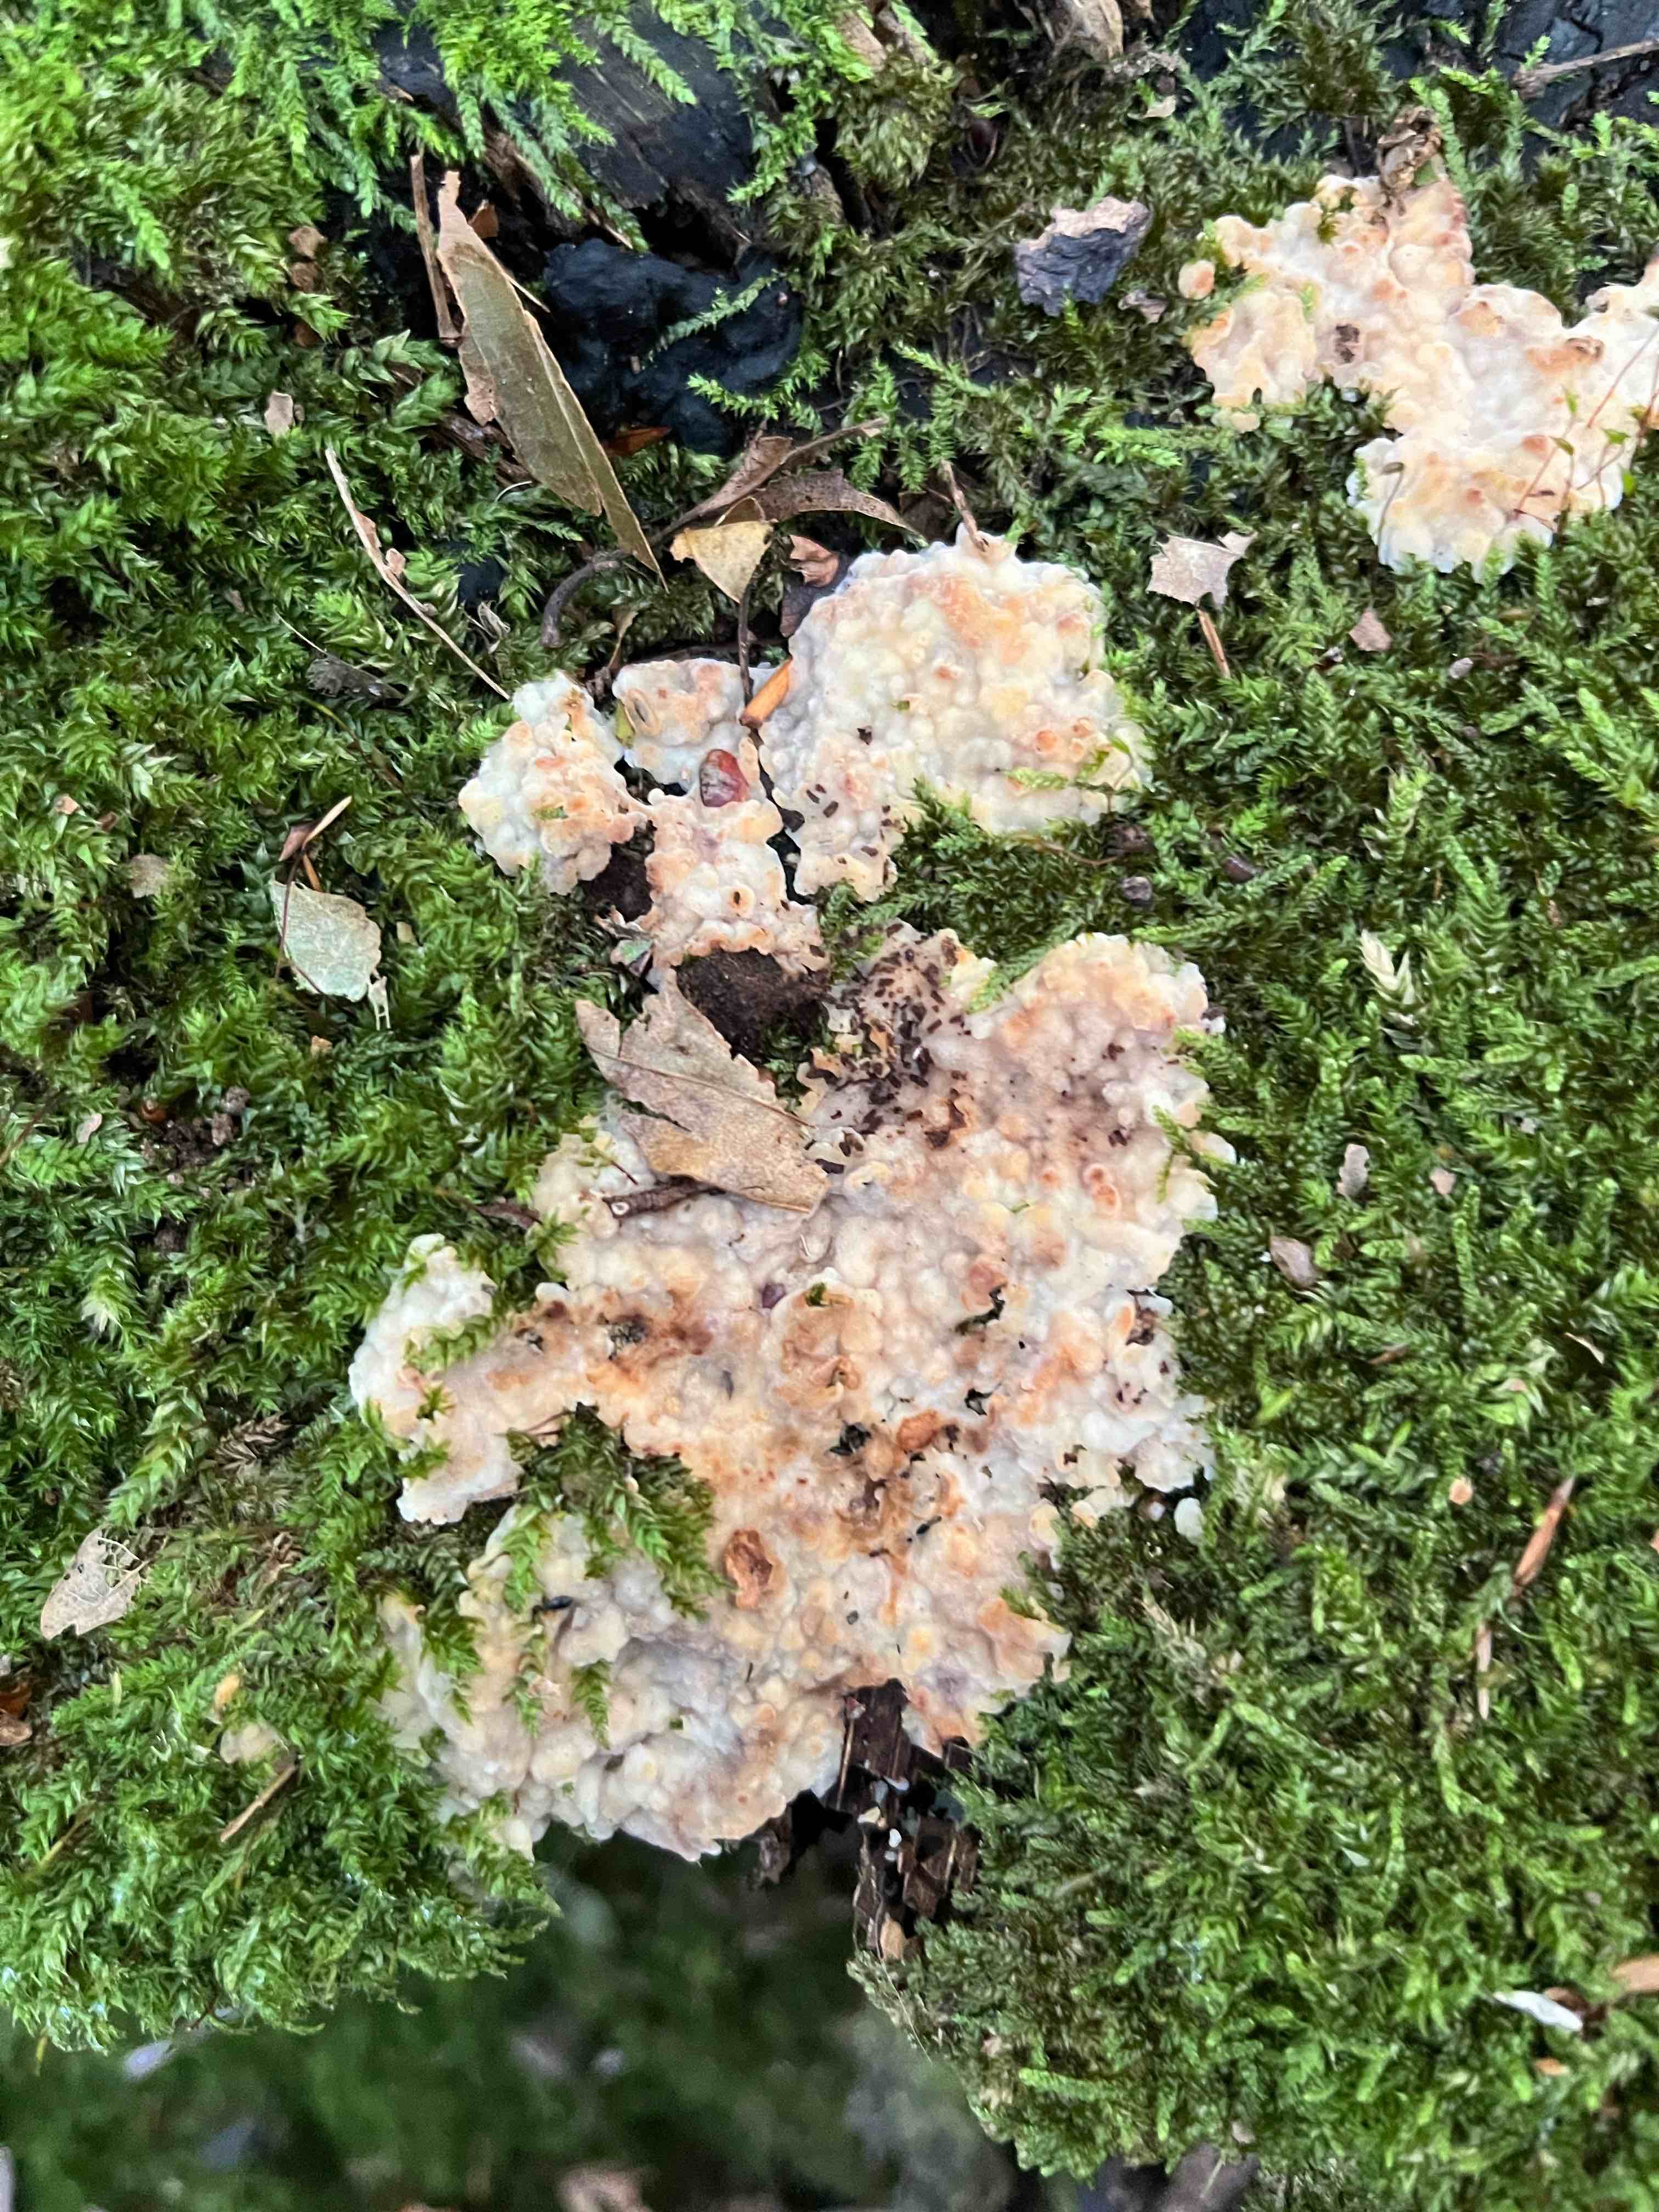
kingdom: Fungi
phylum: Basidiomycota
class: Agaricomycetes
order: Polyporales
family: Meruliaceae
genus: Physisporinus
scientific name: Physisporinus vitreus
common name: mastesvamp
